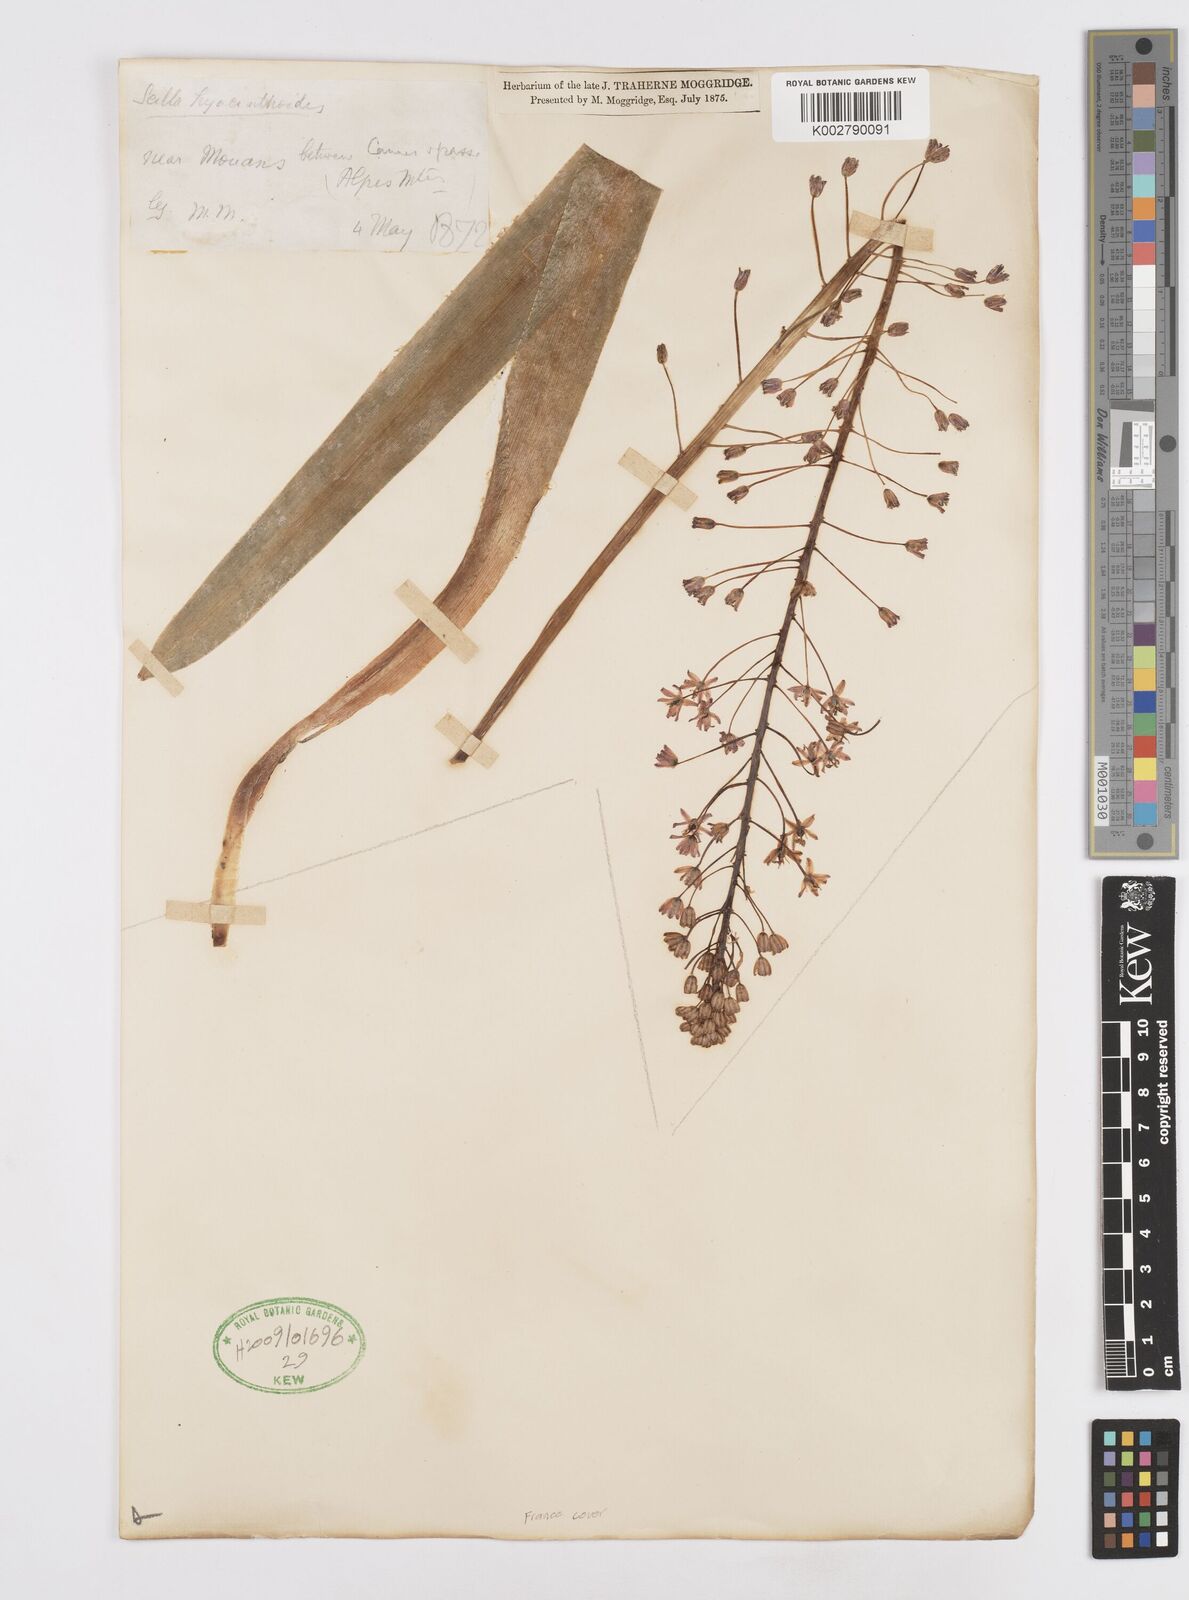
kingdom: Plantae
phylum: Tracheophyta
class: Liliopsida
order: Asparagales
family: Asparagaceae
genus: Scilla
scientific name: Scilla hyacinthoides
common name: Scilla
